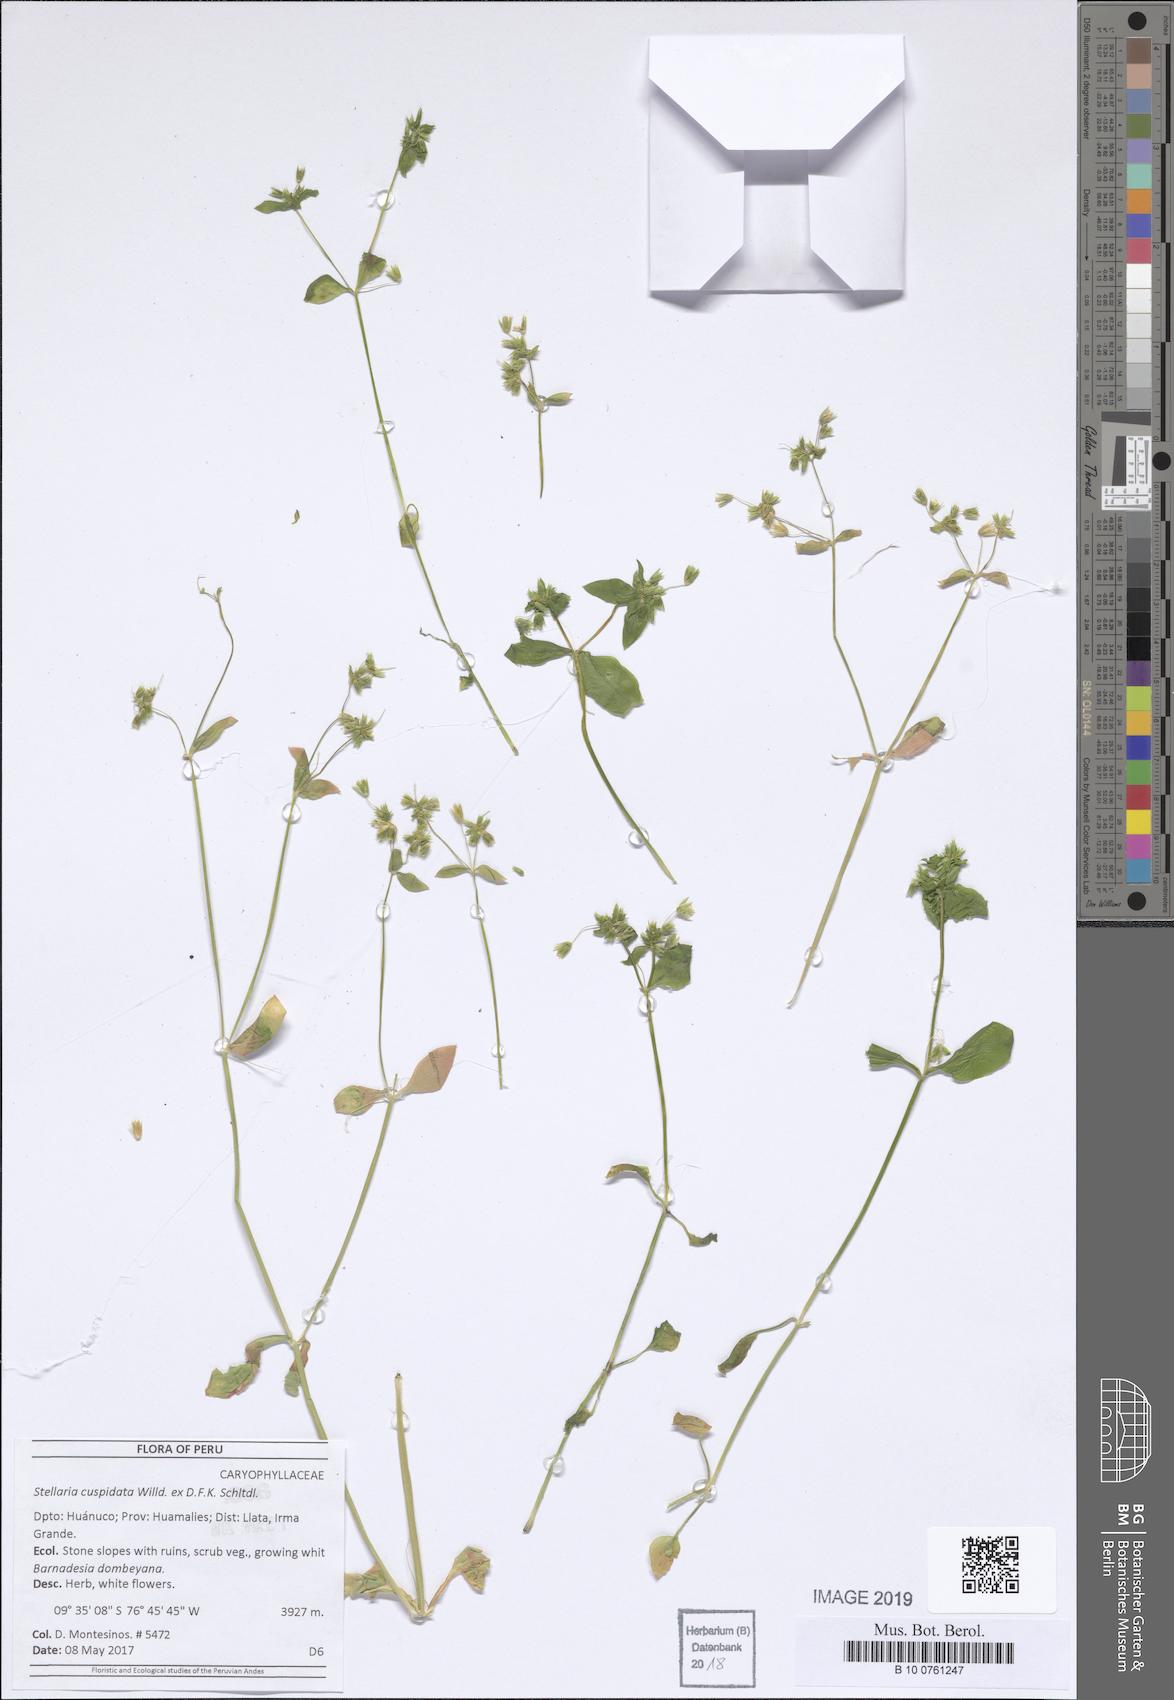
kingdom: Plantae
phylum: Tracheophyta
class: Magnoliopsida
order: Caryophyllales
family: Caryophyllaceae
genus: Stellaria
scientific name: Stellaria cuspidata
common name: Mexican chickweed
